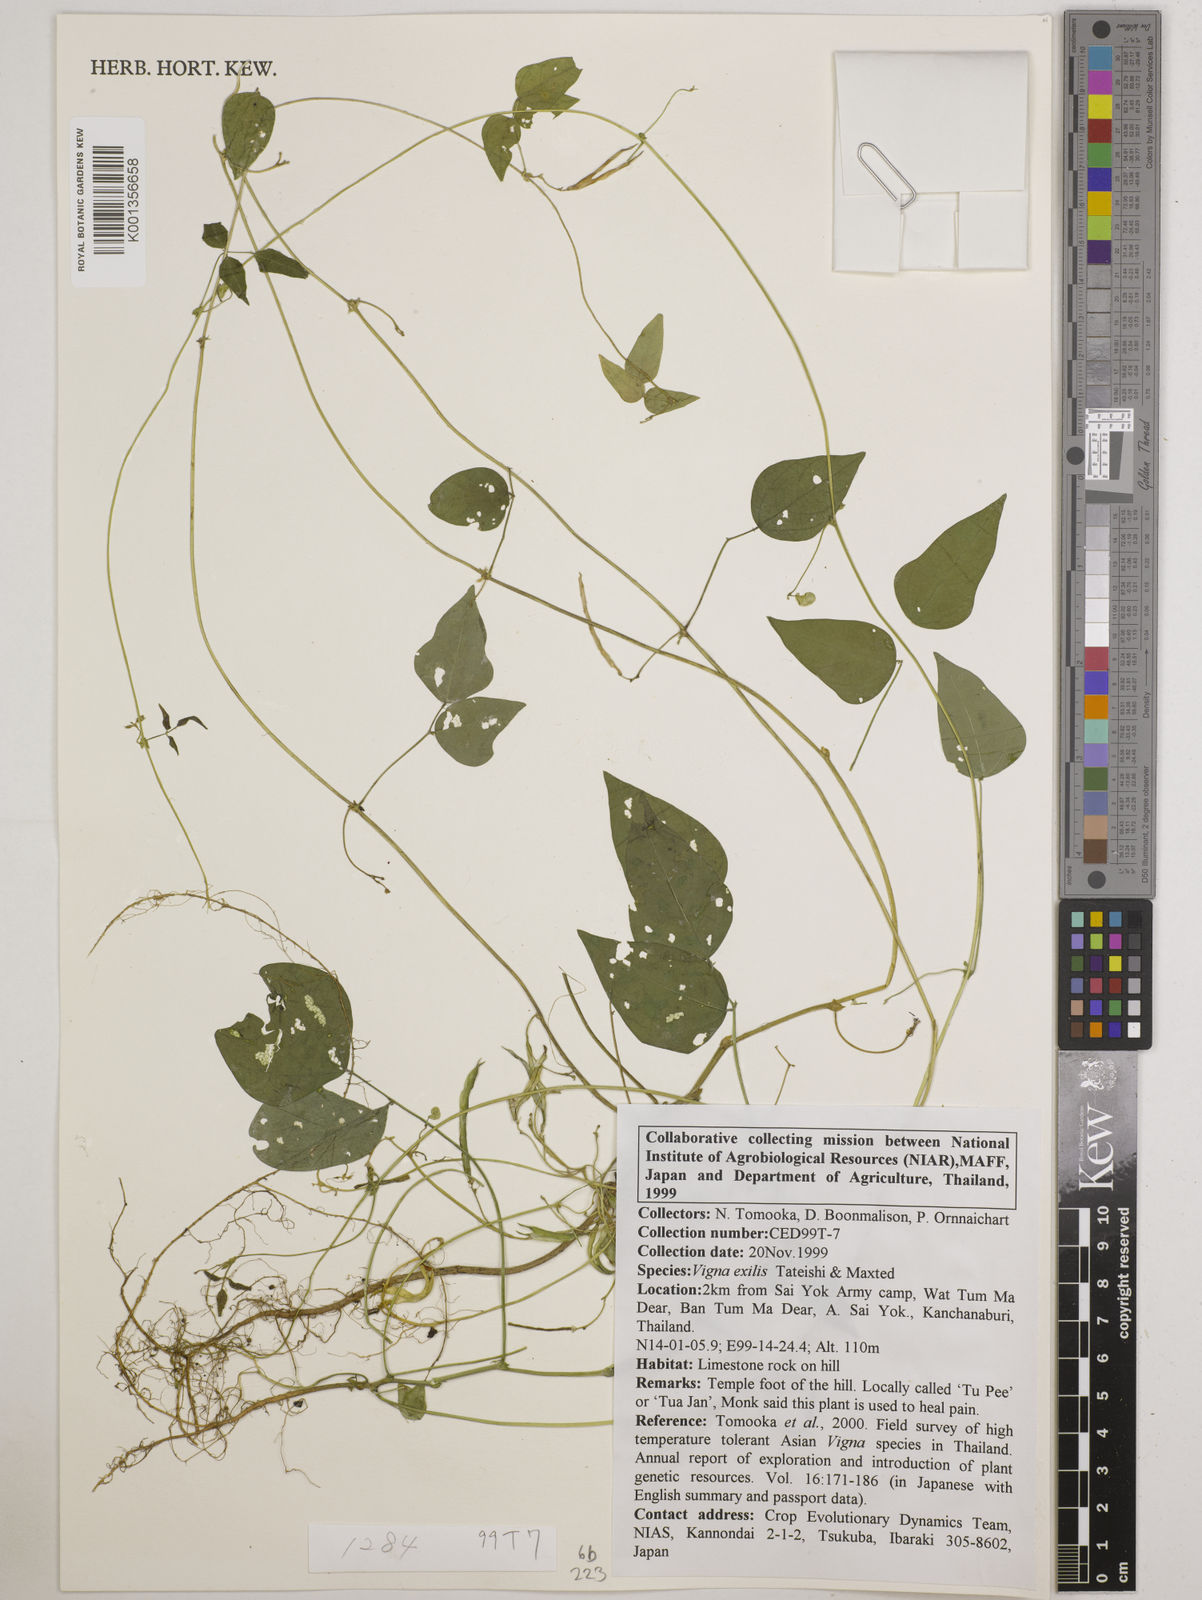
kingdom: Plantae
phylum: Tracheophyta
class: Magnoliopsida
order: Fabales
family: Fabaceae
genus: Vigna
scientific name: Vigna
